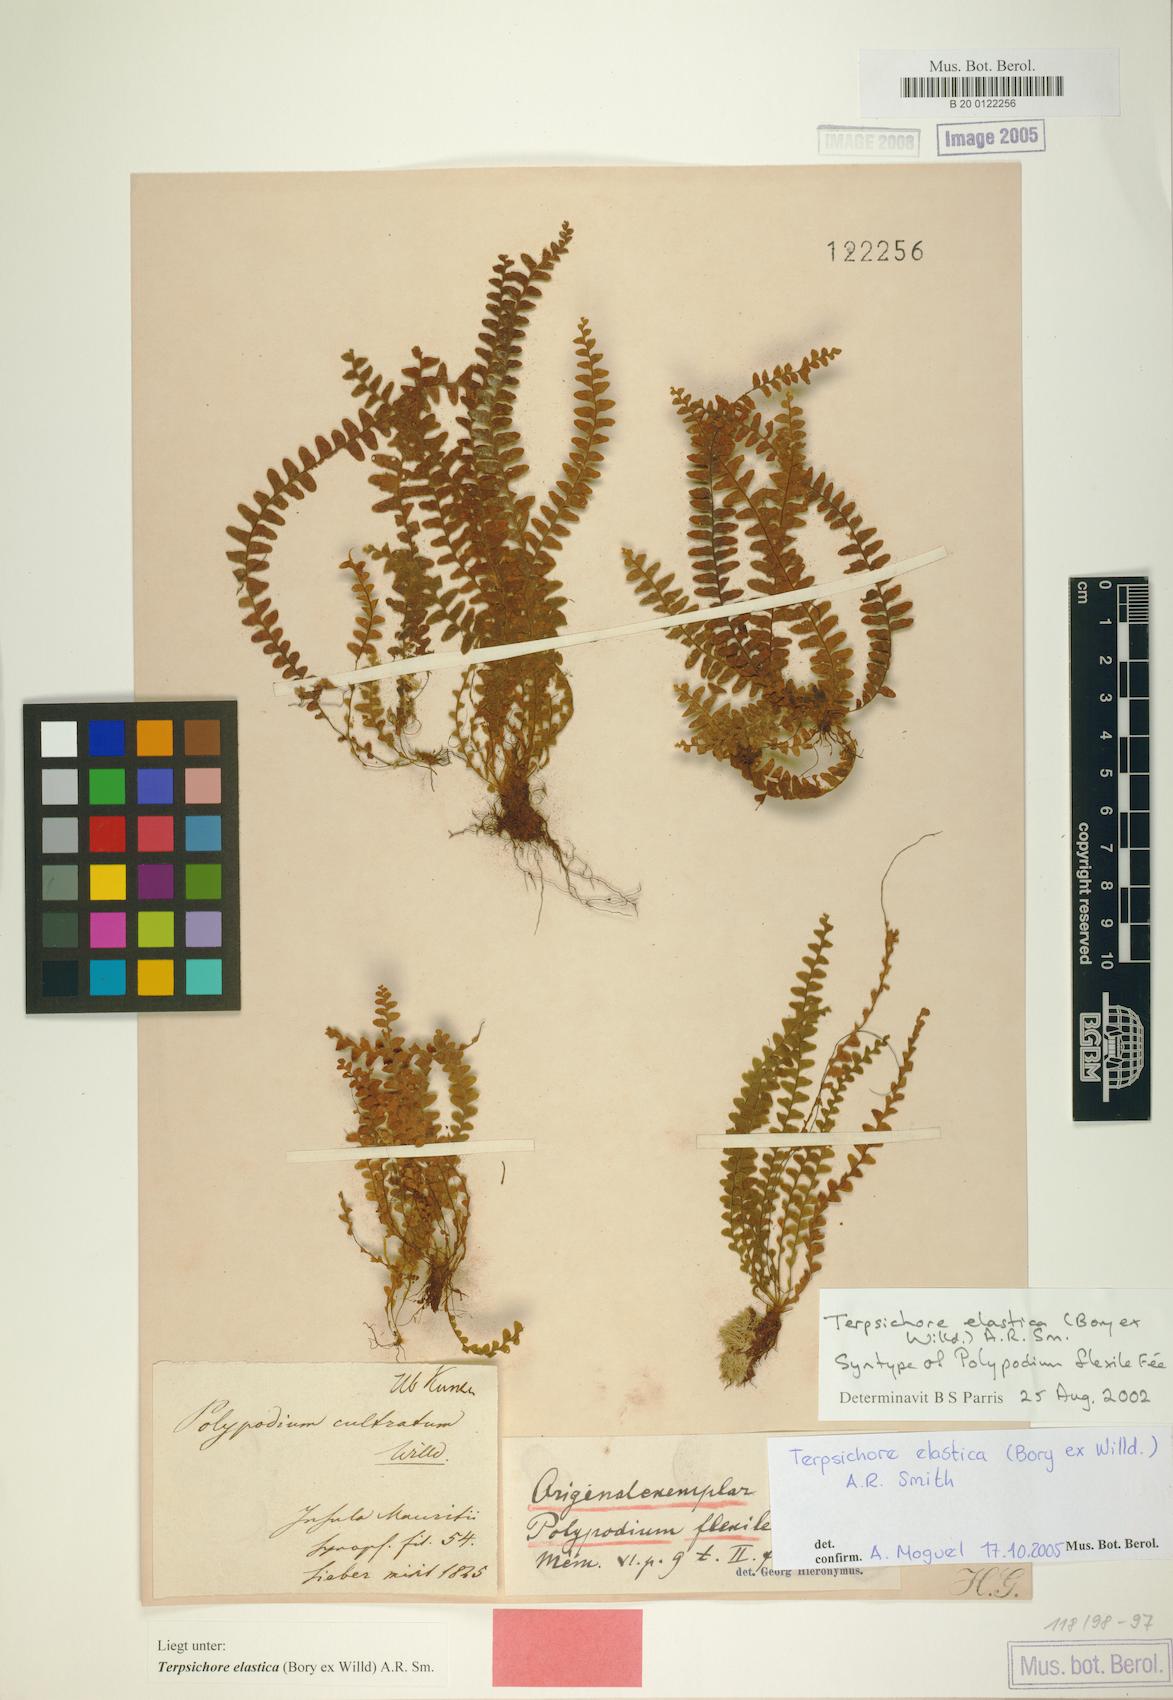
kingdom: Plantae
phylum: Tracheophyta
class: Polypodiopsida
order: Polypodiales
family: Polypodiaceae
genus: Alansmia
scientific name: Alansmia elastica
